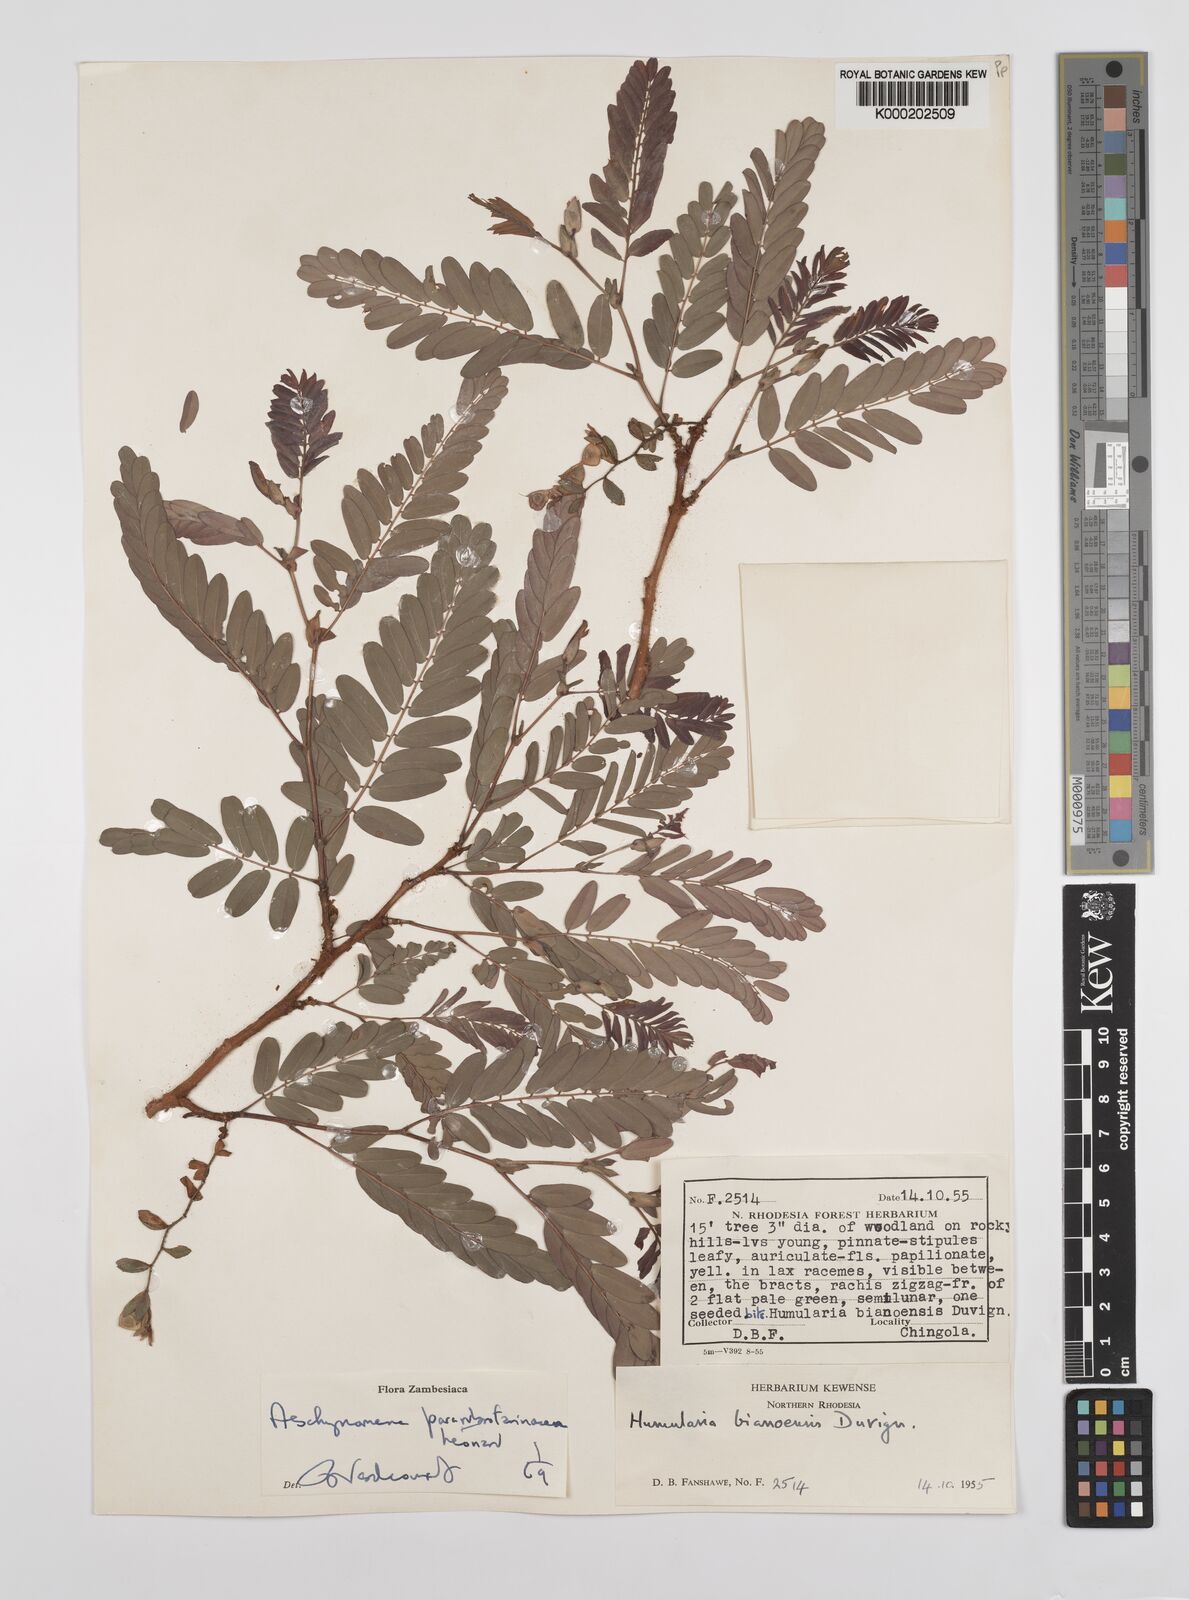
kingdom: Plantae
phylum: Tracheophyta
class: Magnoliopsida
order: Fabales
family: Fabaceae
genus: Aeschynomene
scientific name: Aeschynomene pararubrofarinacea
